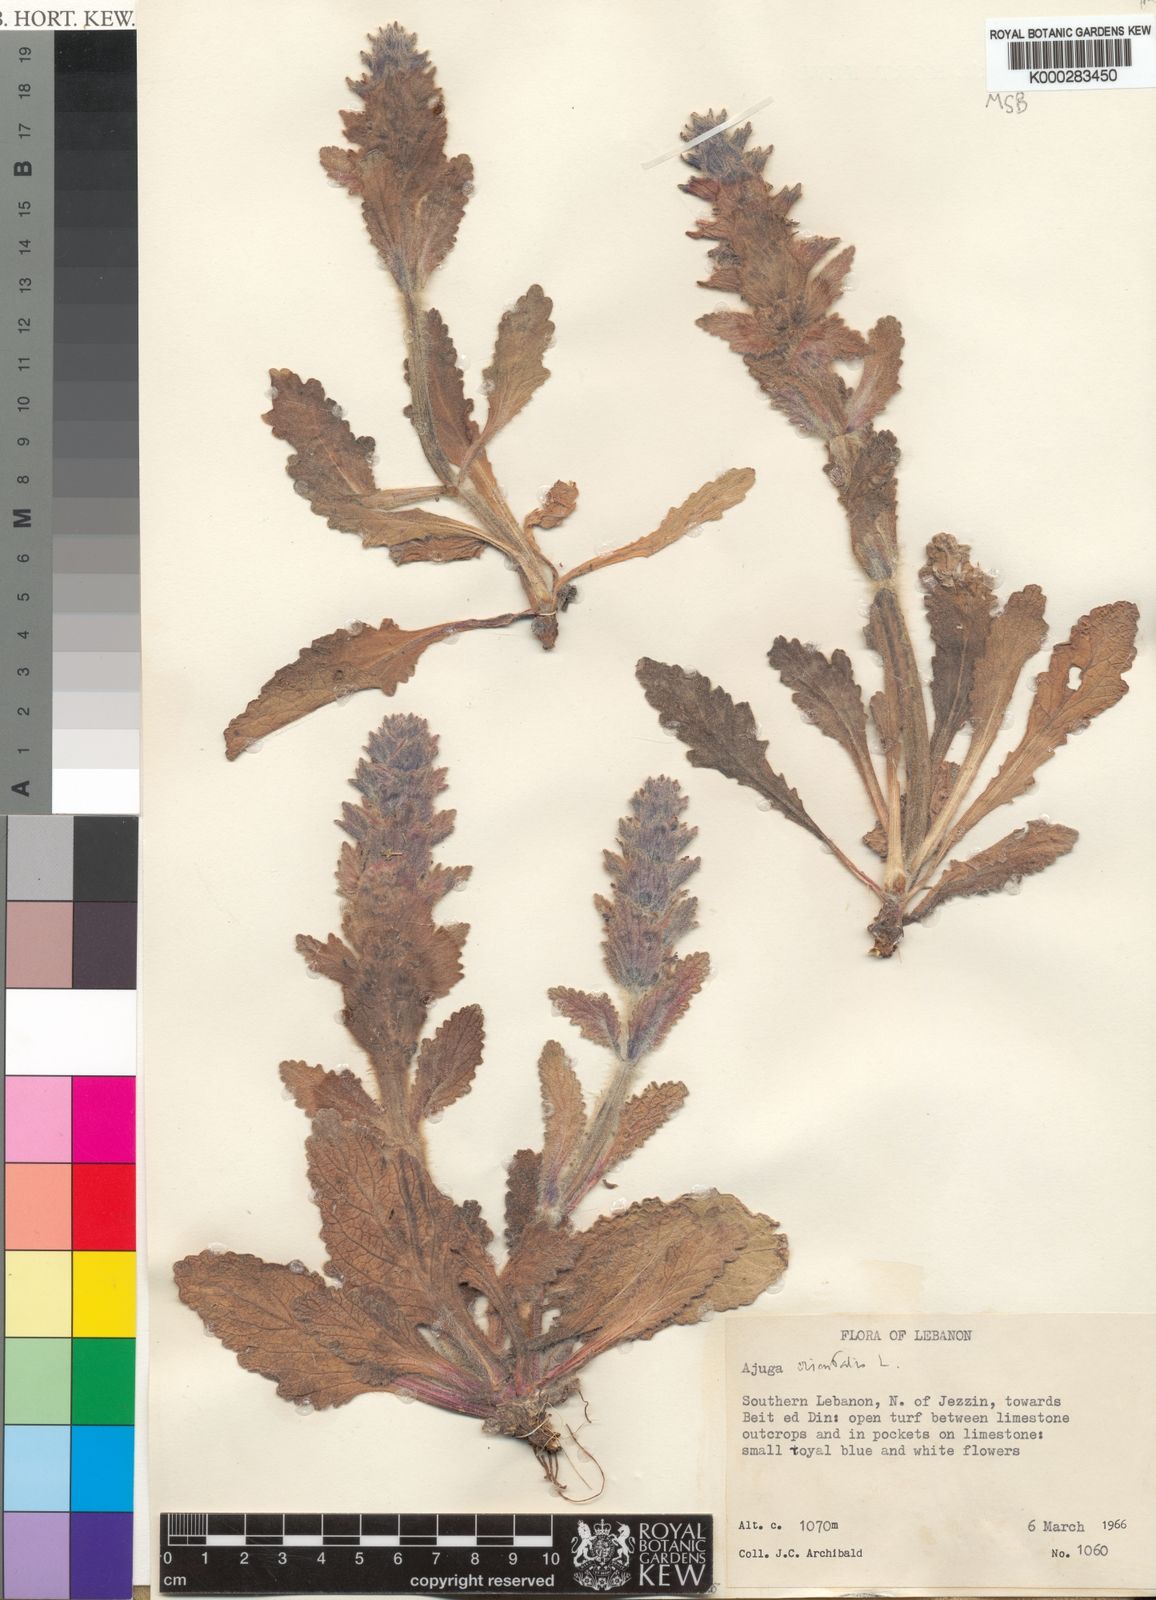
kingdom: Plantae
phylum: Tracheophyta
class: Magnoliopsida
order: Lamiales
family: Lamiaceae
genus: Ajuga
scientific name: Ajuga orientalis
